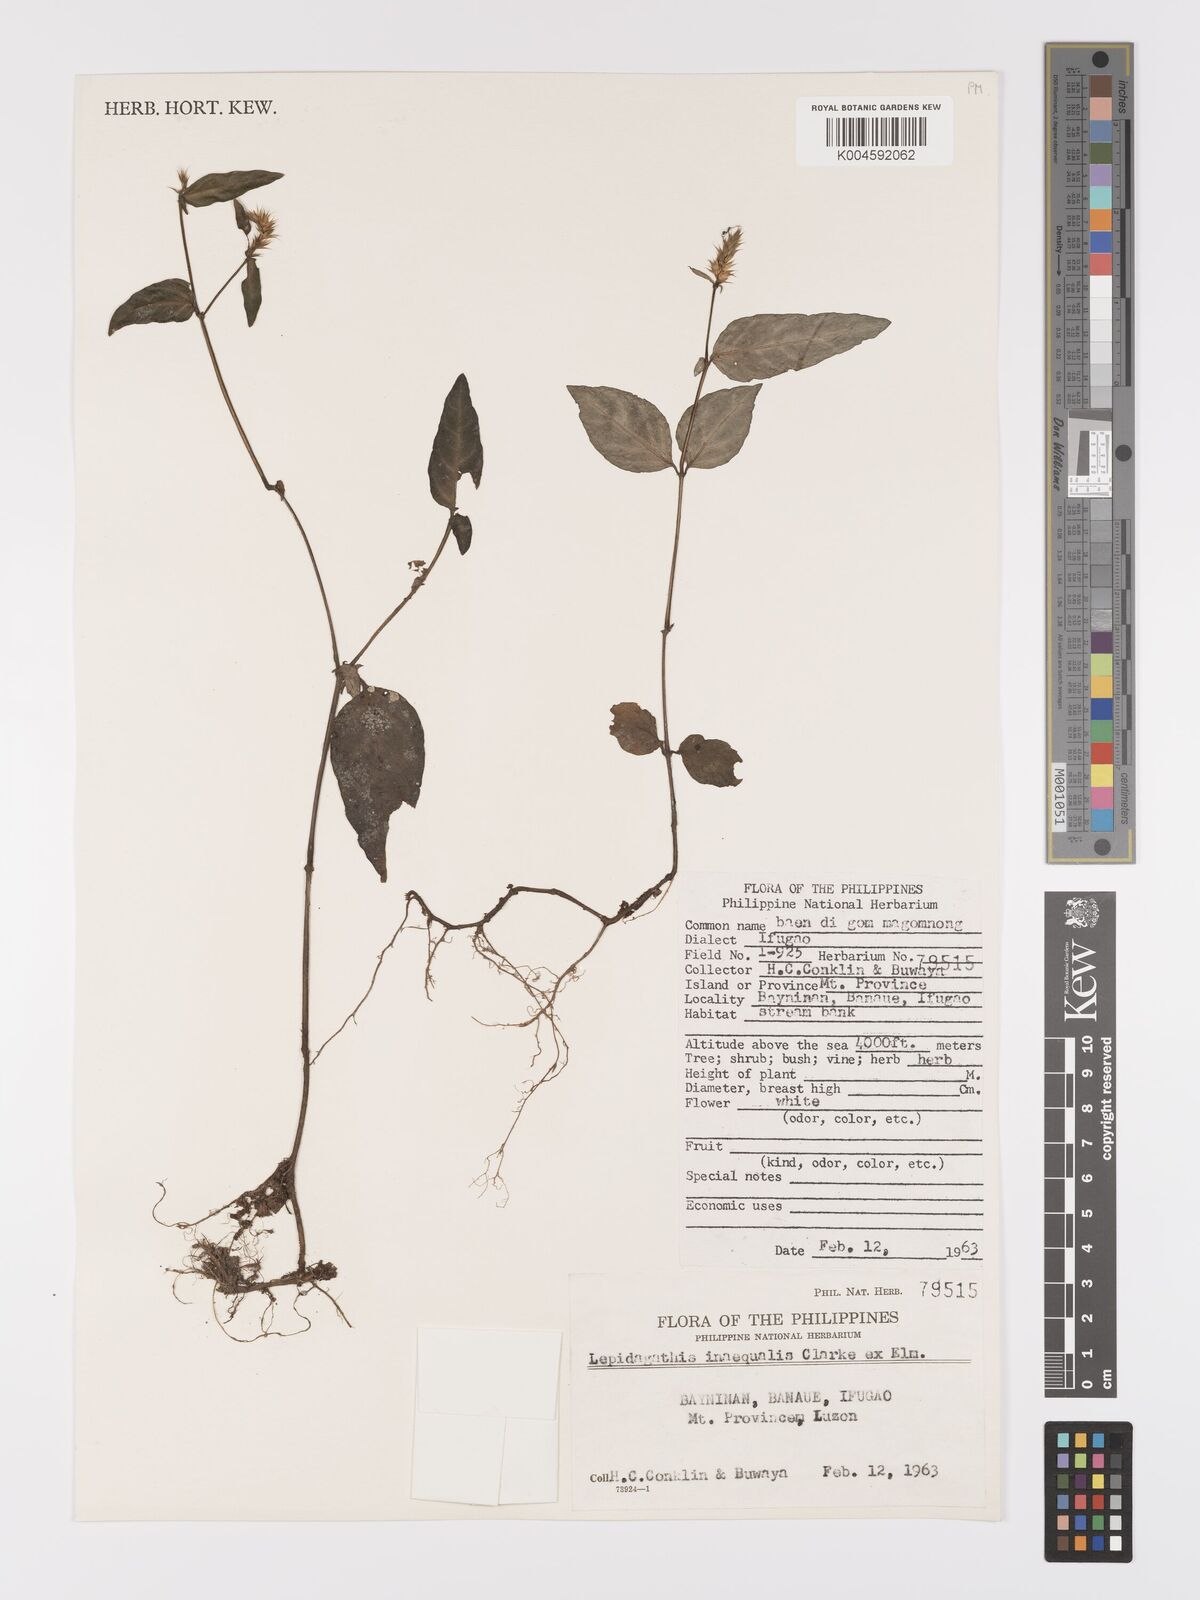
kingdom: Plantae
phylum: Tracheophyta
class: Magnoliopsida
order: Lamiales
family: Acanthaceae
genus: Lepidagathis
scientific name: Lepidagathis inaequalis
